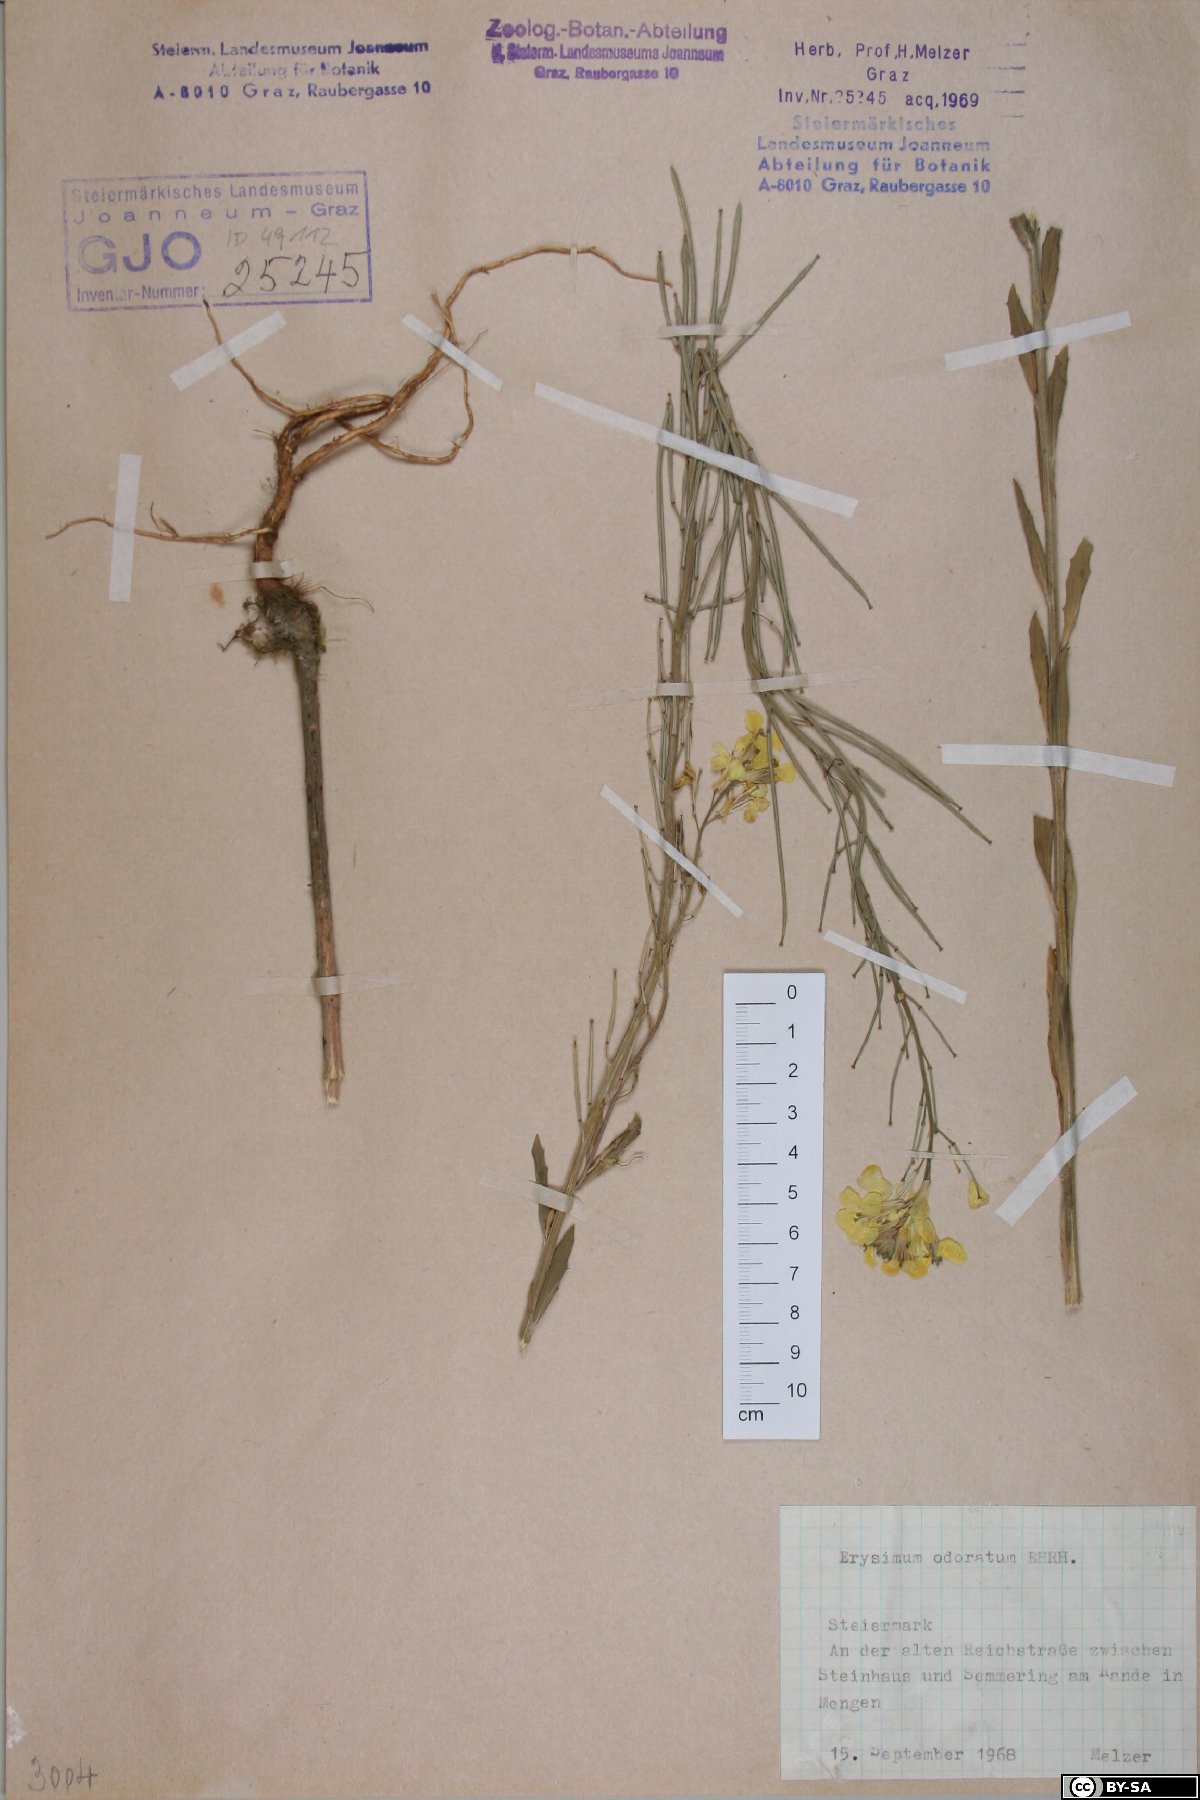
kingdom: Plantae
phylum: Tracheophyta
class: Magnoliopsida
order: Brassicales
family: Brassicaceae
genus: Erysimum
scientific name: Erysimum odoratum
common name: Smelly wallflower
